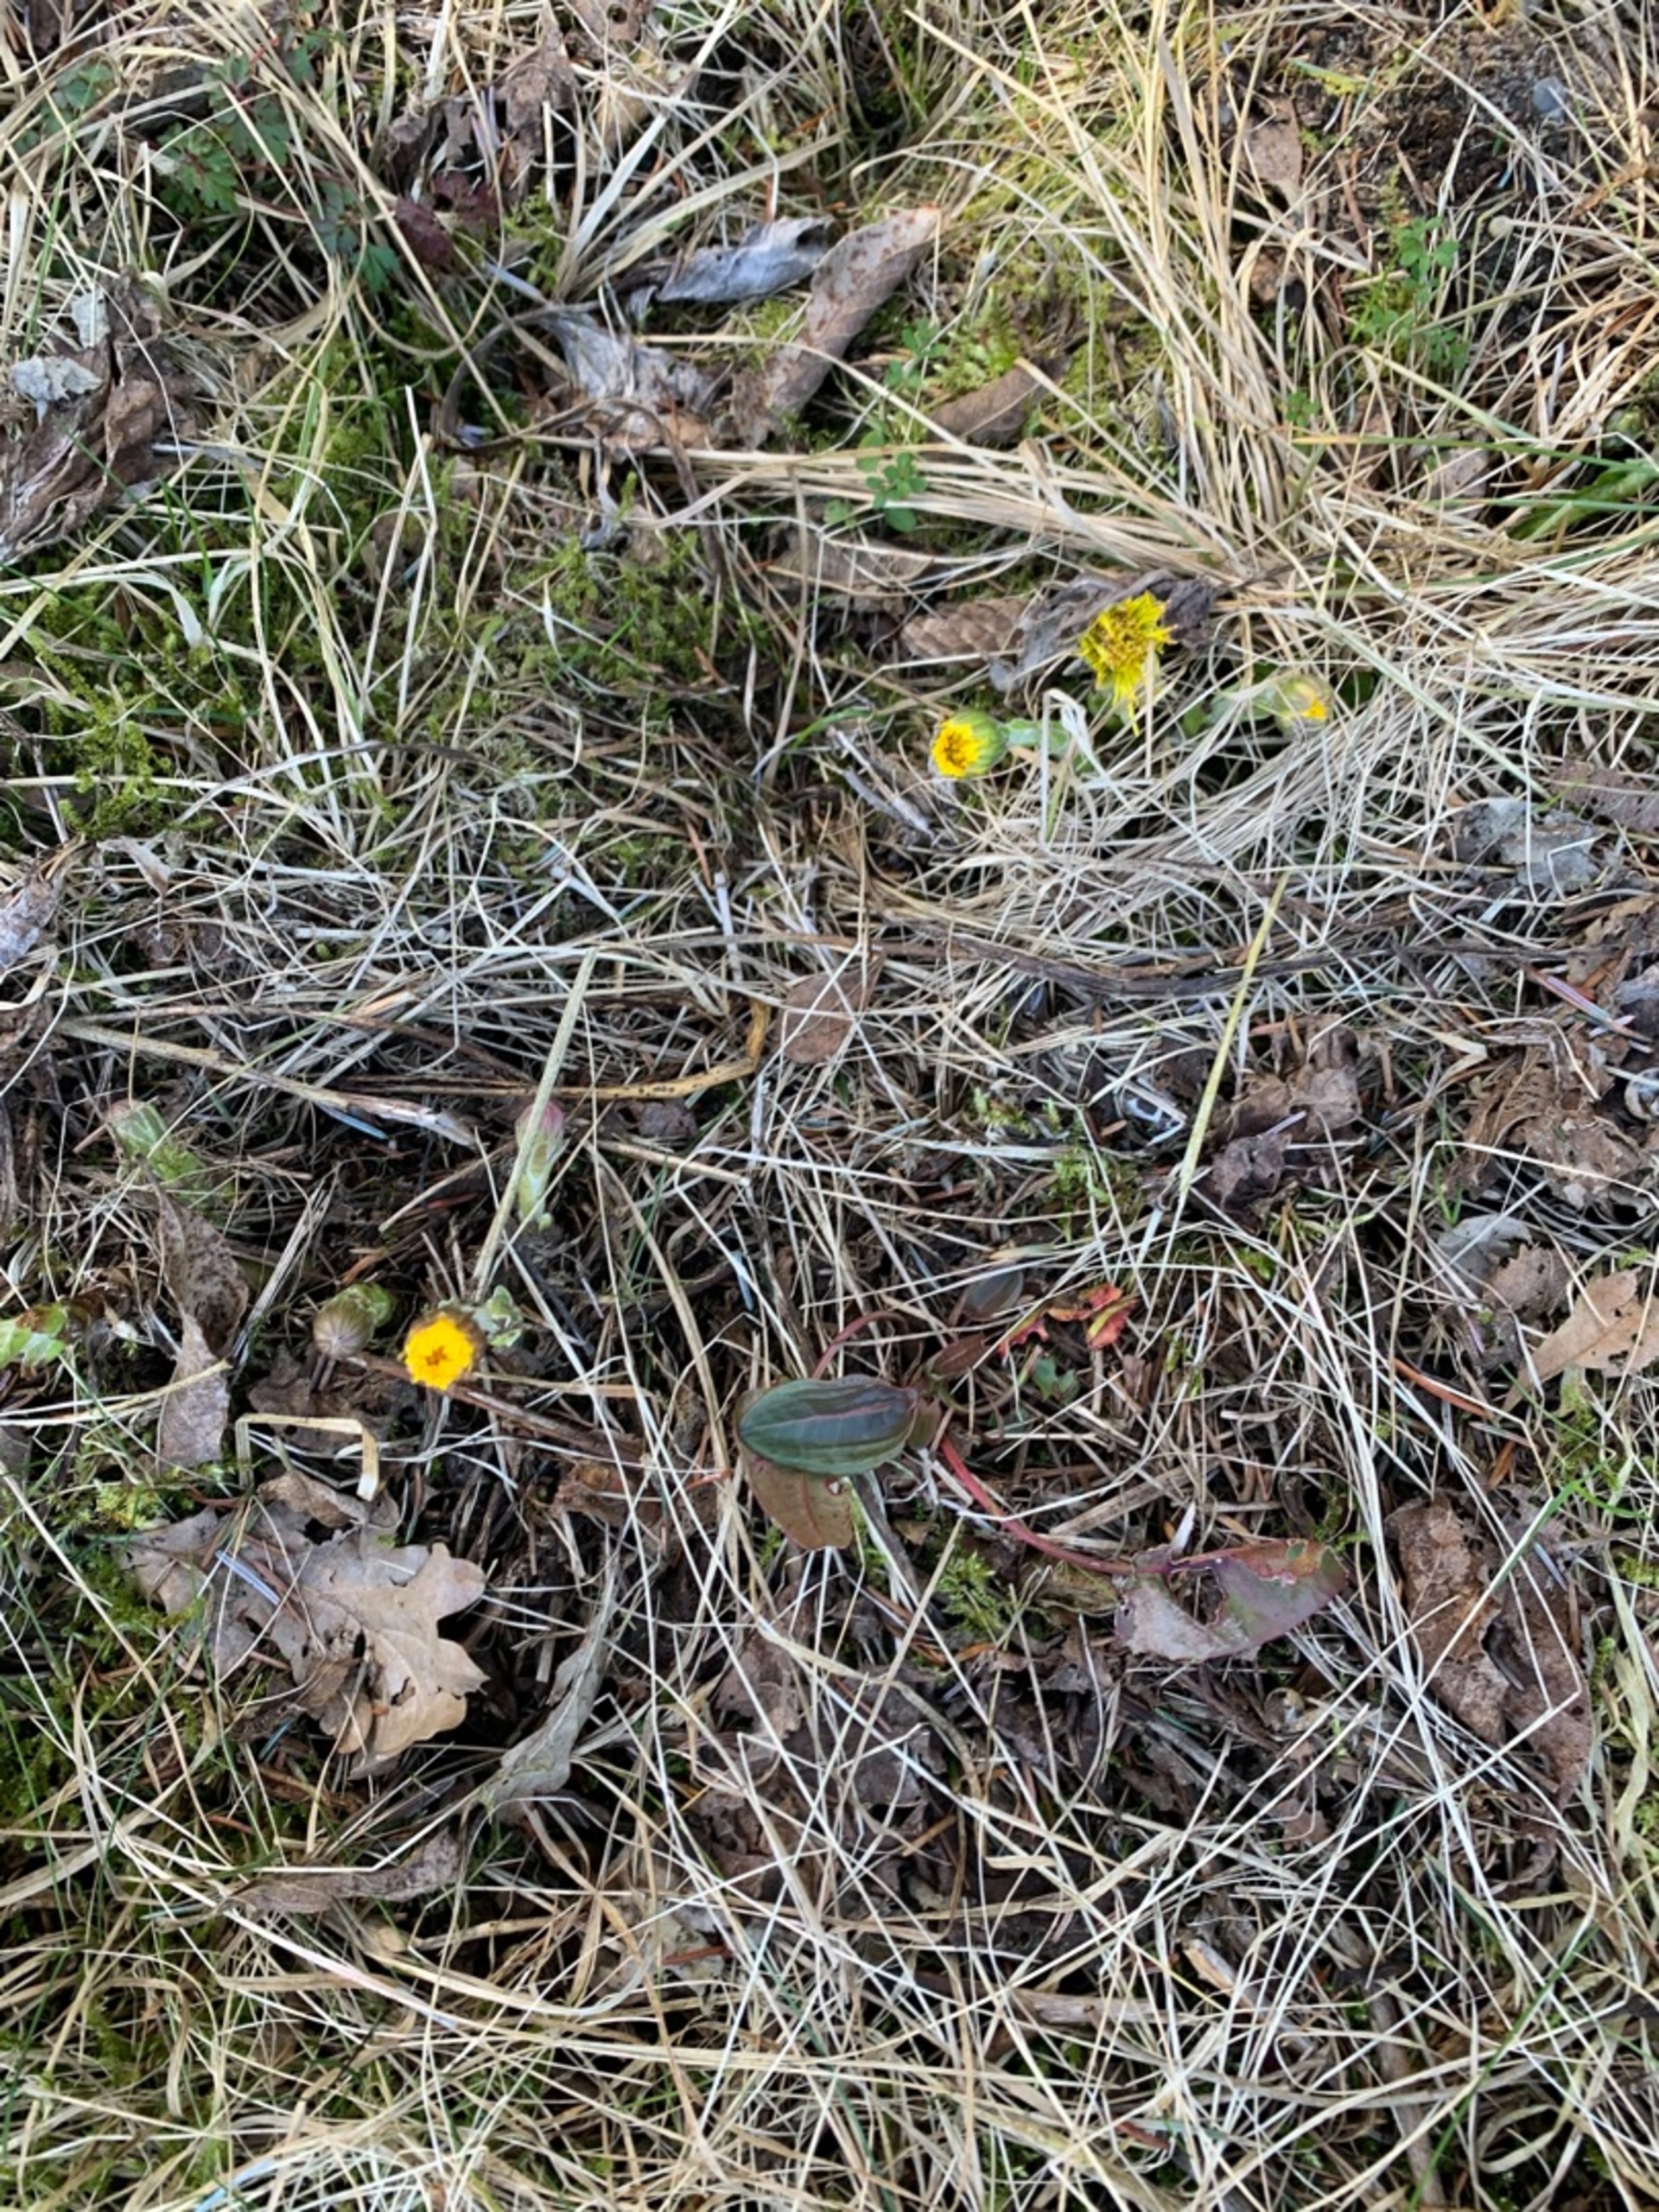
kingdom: Plantae
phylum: Tracheophyta
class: Magnoliopsida
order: Asterales
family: Asteraceae
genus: Tussilago
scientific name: Tussilago farfara
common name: Følfod
